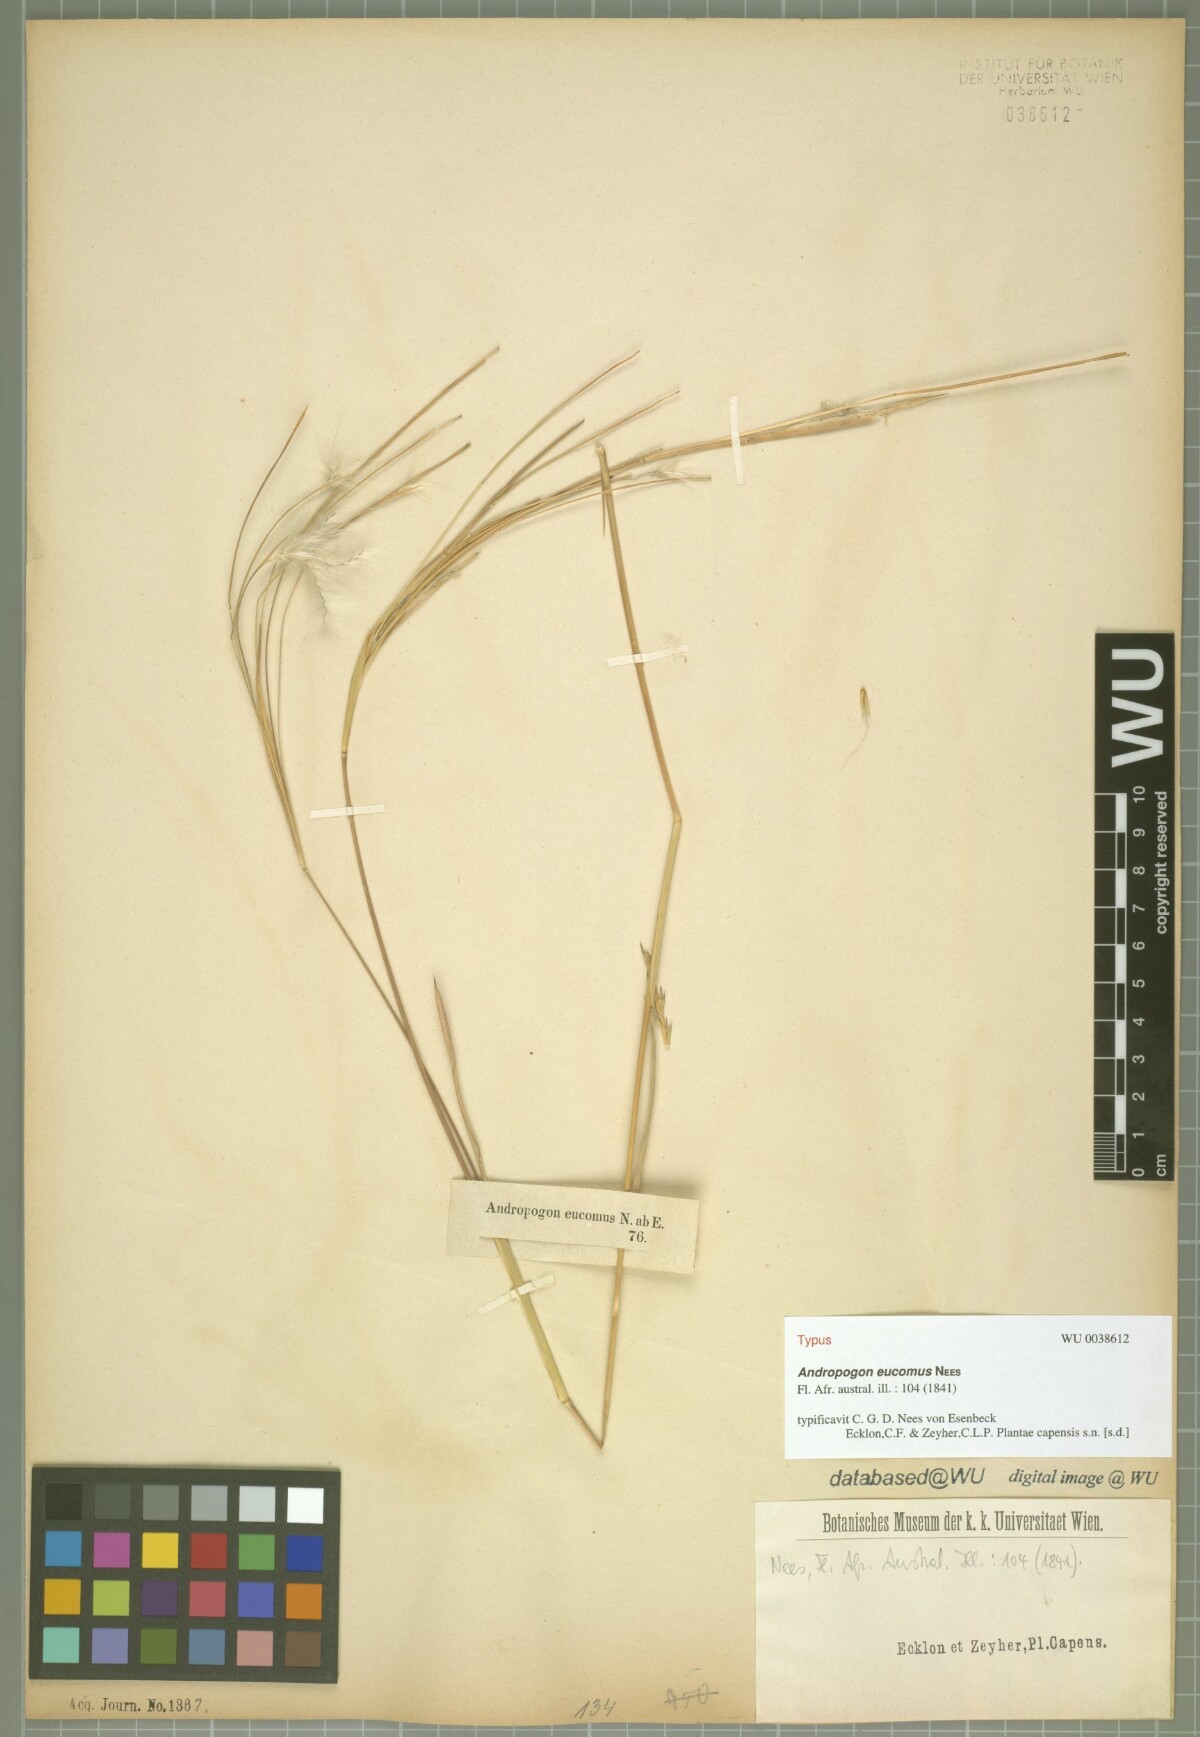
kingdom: Plantae
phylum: Tracheophyta
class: Liliopsida
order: Poales
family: Poaceae
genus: Andropogon
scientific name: Andropogon eucomus
